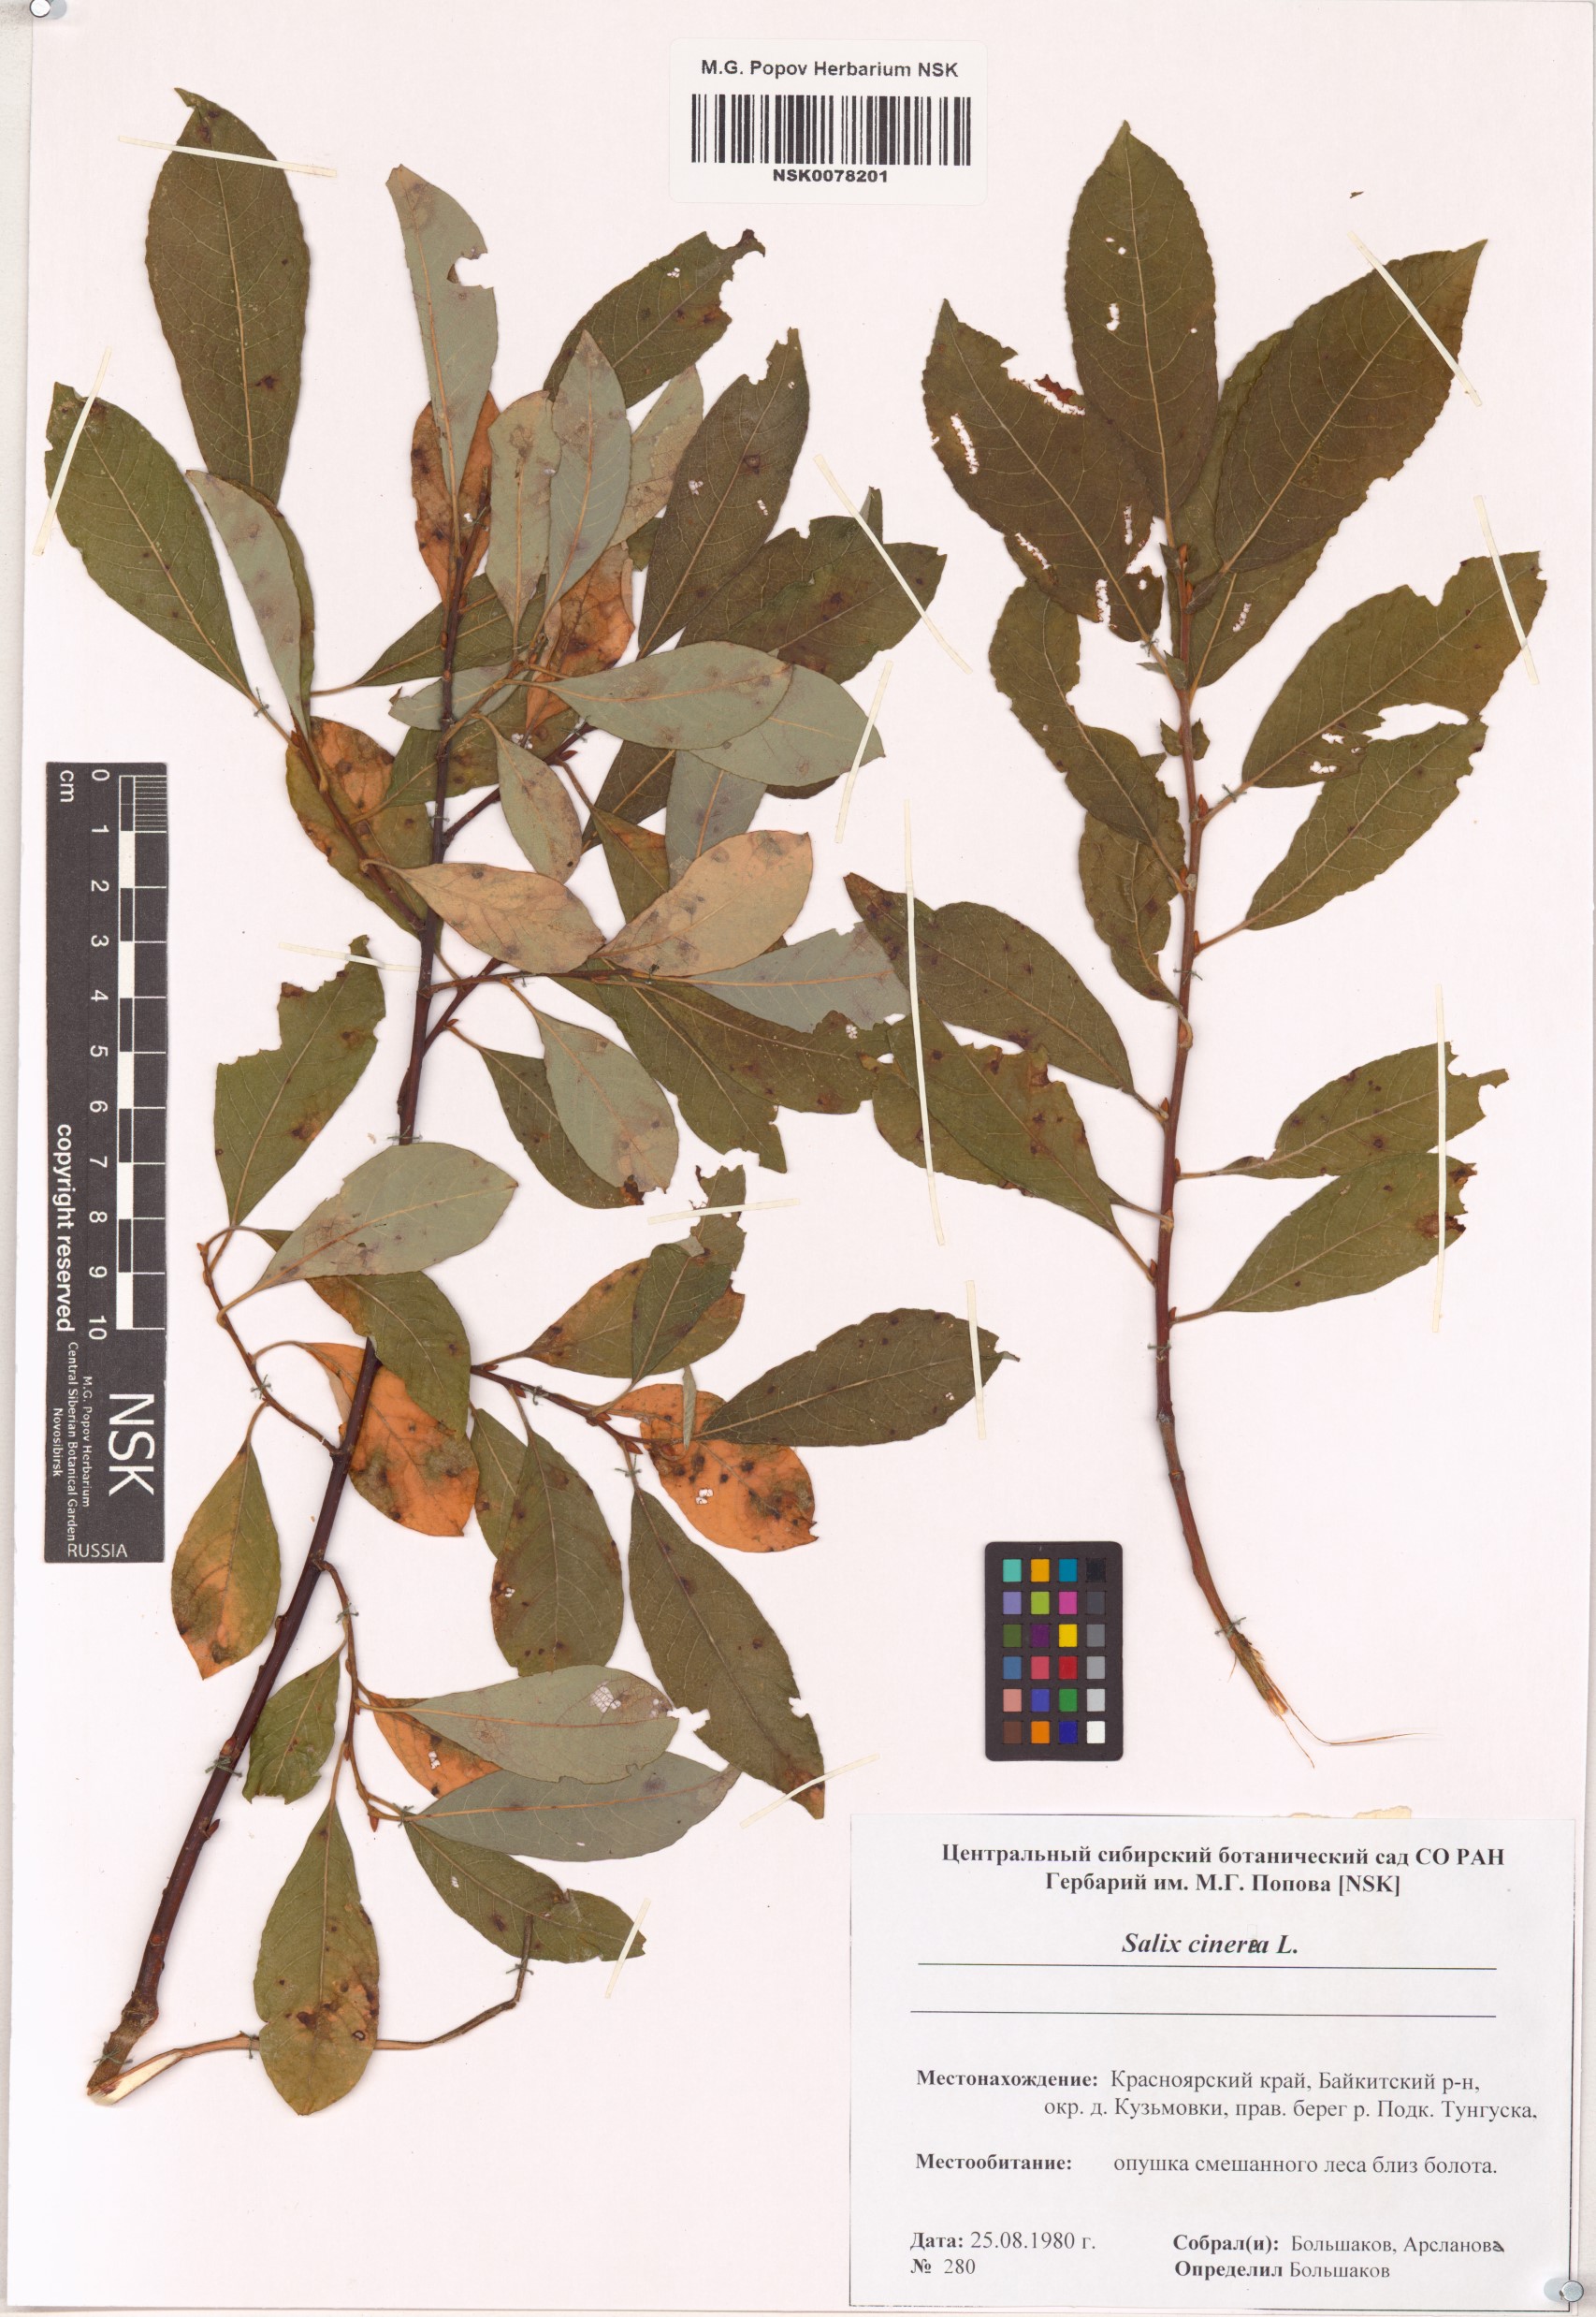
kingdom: Plantae
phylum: Tracheophyta
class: Magnoliopsida
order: Malpighiales
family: Salicaceae
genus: Salix
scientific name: Salix cinerea
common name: Common sallow
